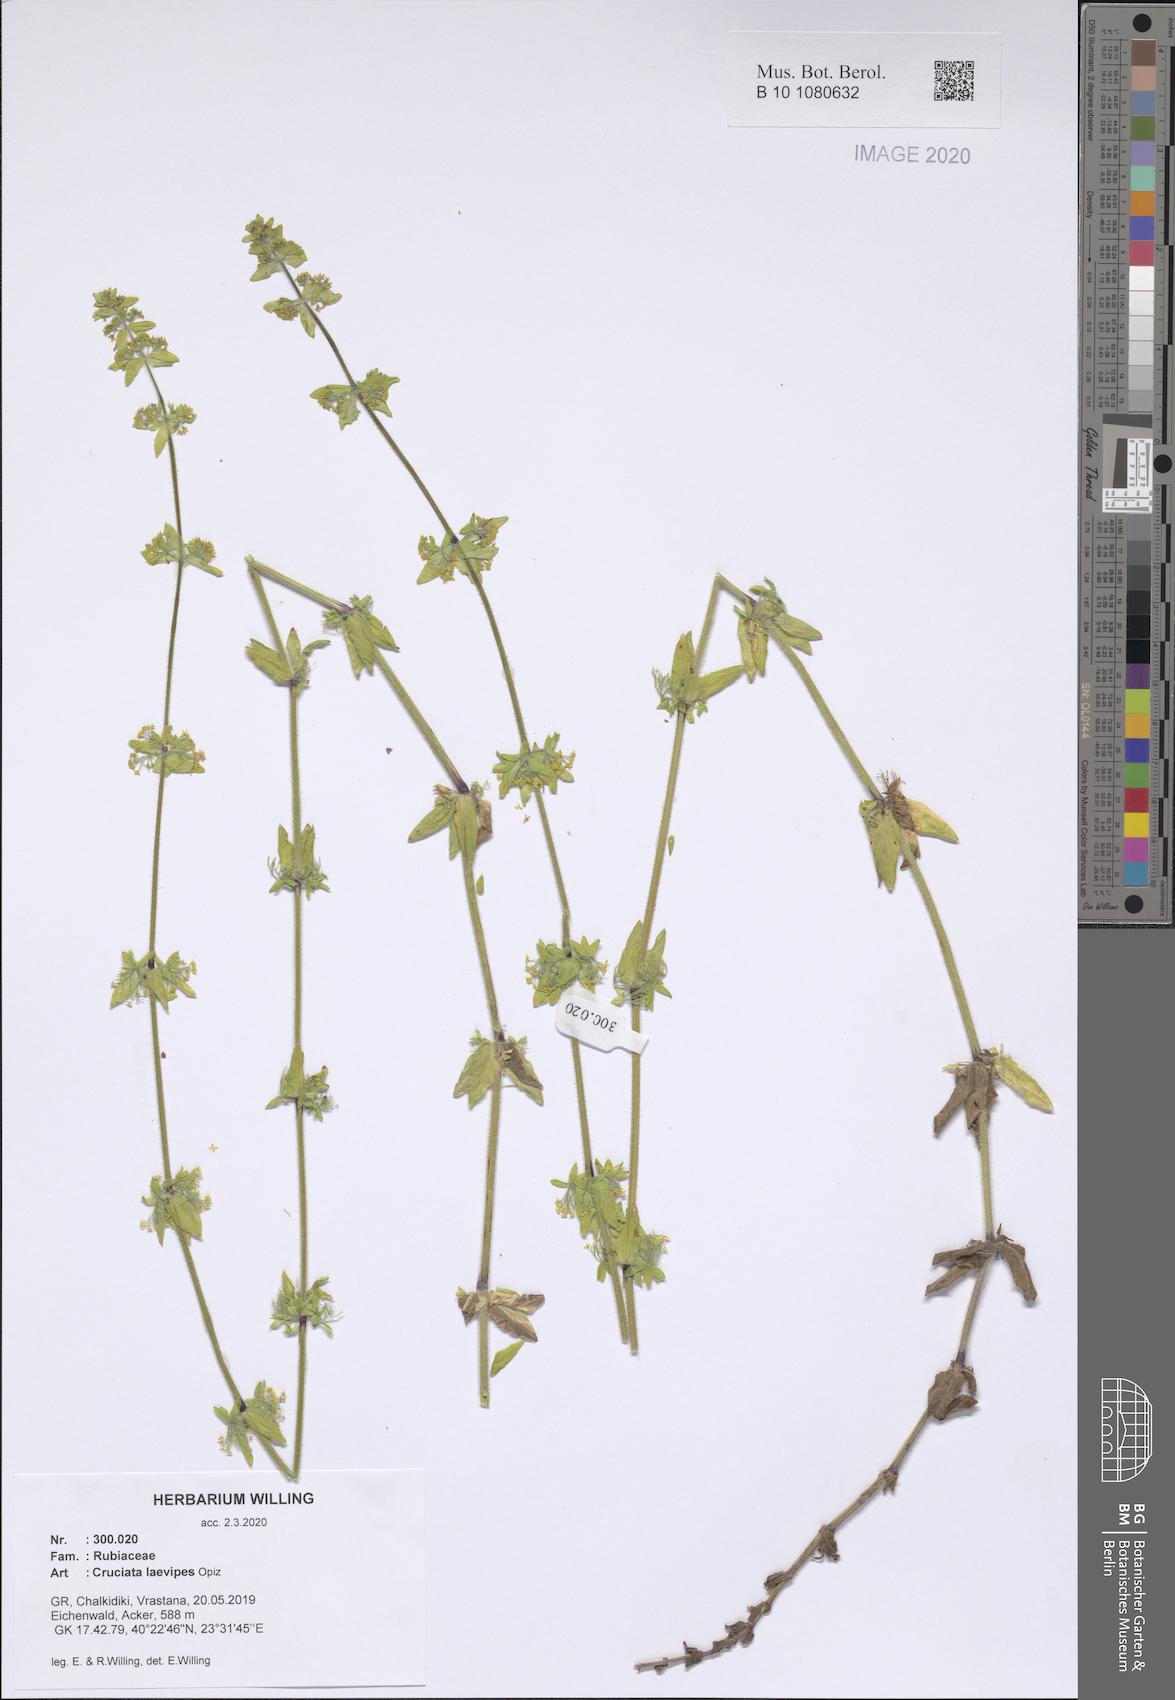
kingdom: Plantae
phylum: Tracheophyta
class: Magnoliopsida
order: Gentianales
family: Rubiaceae
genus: Cruciata
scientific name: Cruciata laevipes
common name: Crosswort
